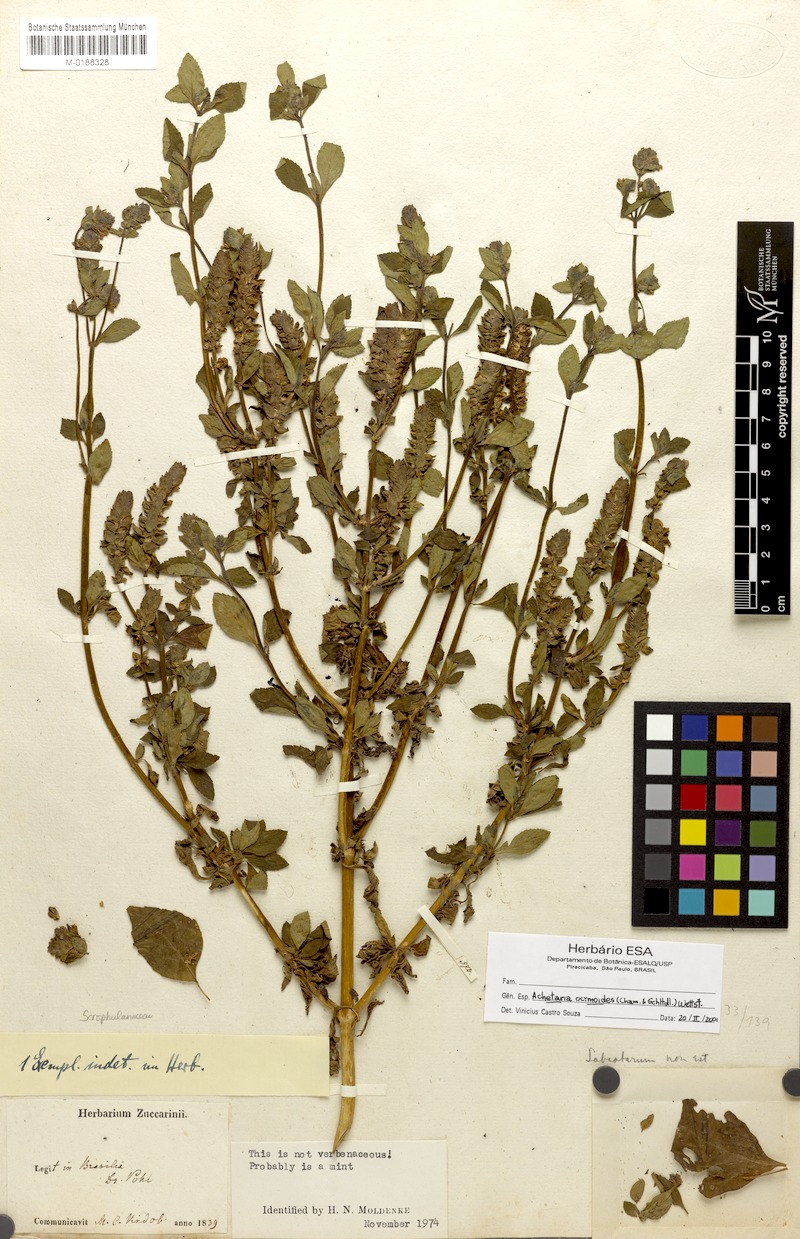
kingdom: Plantae
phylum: Tracheophyta
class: Magnoliopsida
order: Lamiales
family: Plantaginaceae
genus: Matourea
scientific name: Matourea ocymoides
